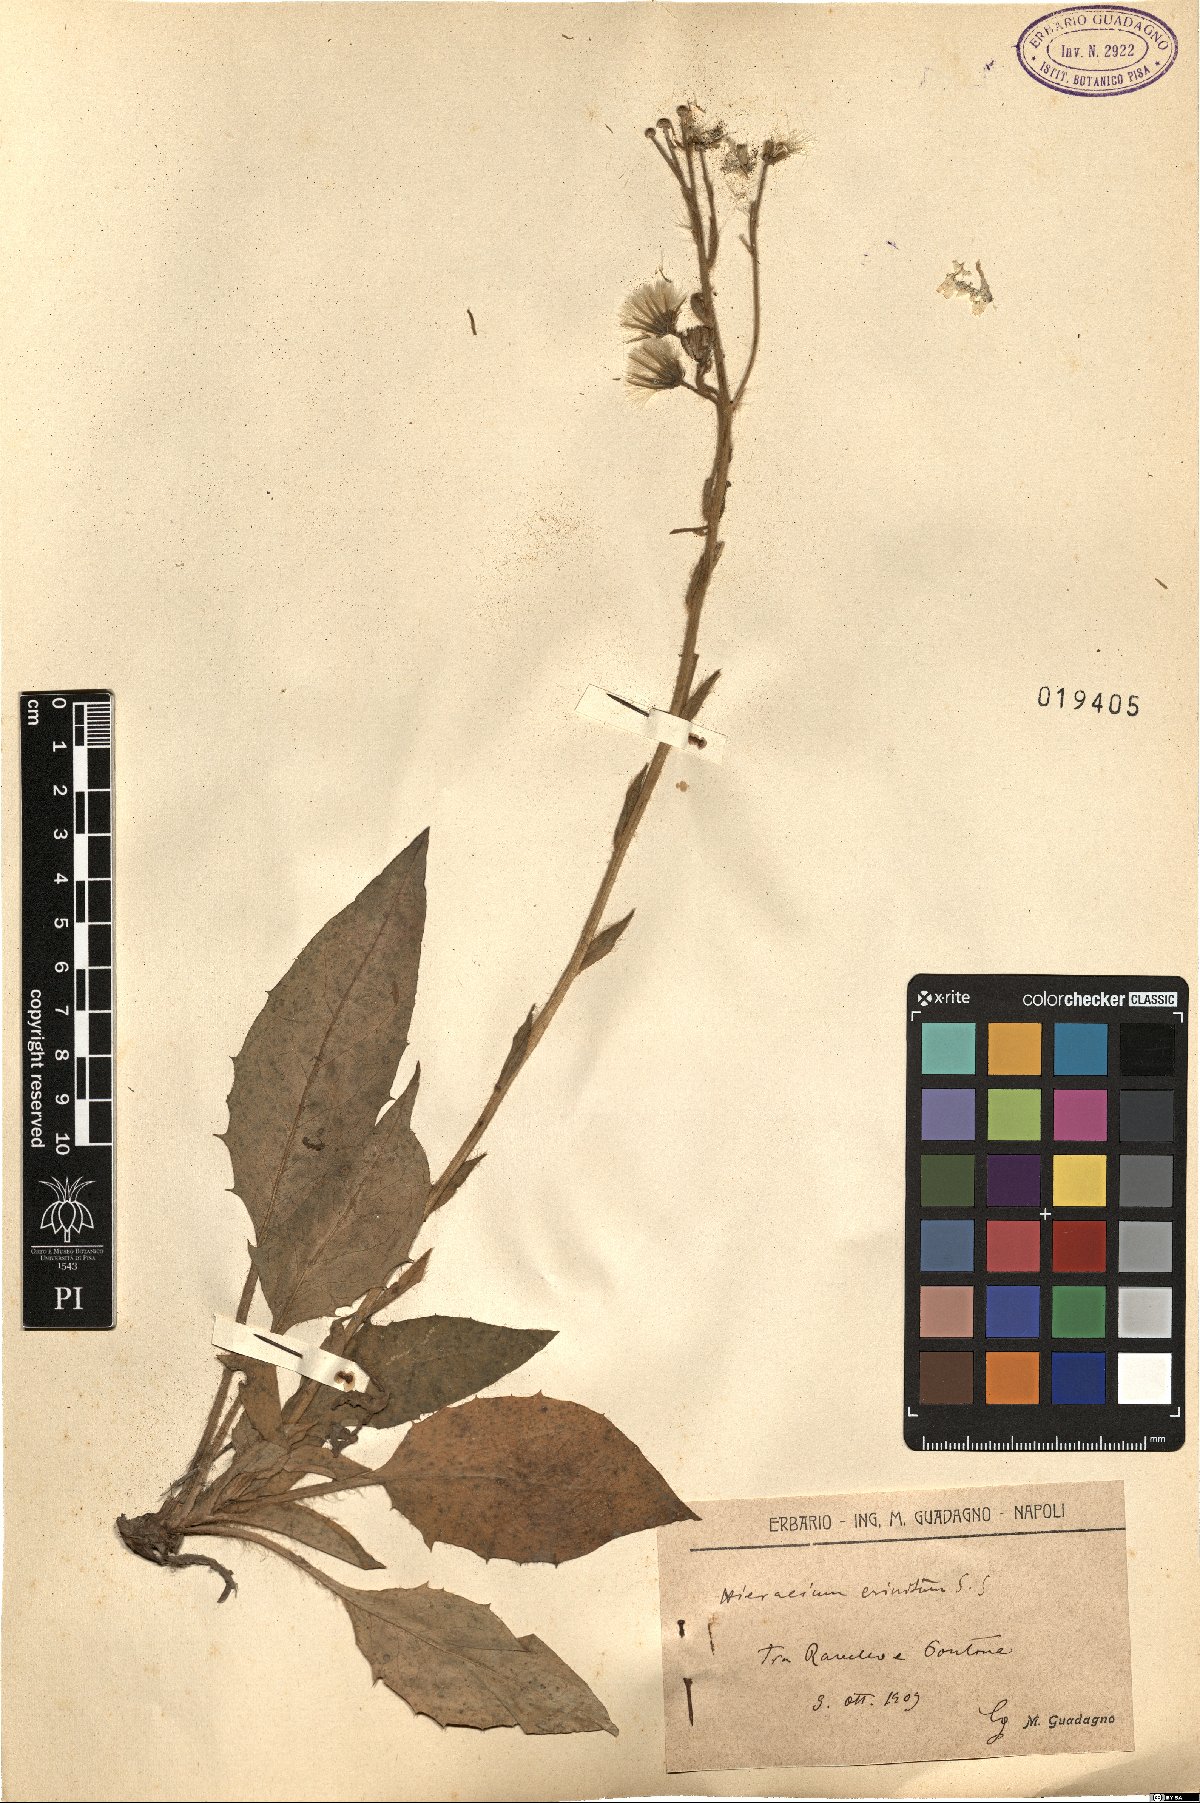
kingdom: Plantae
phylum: Tracheophyta
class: Magnoliopsida
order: Asterales
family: Asteraceae
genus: Hieracium
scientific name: Hieracium racemosum
